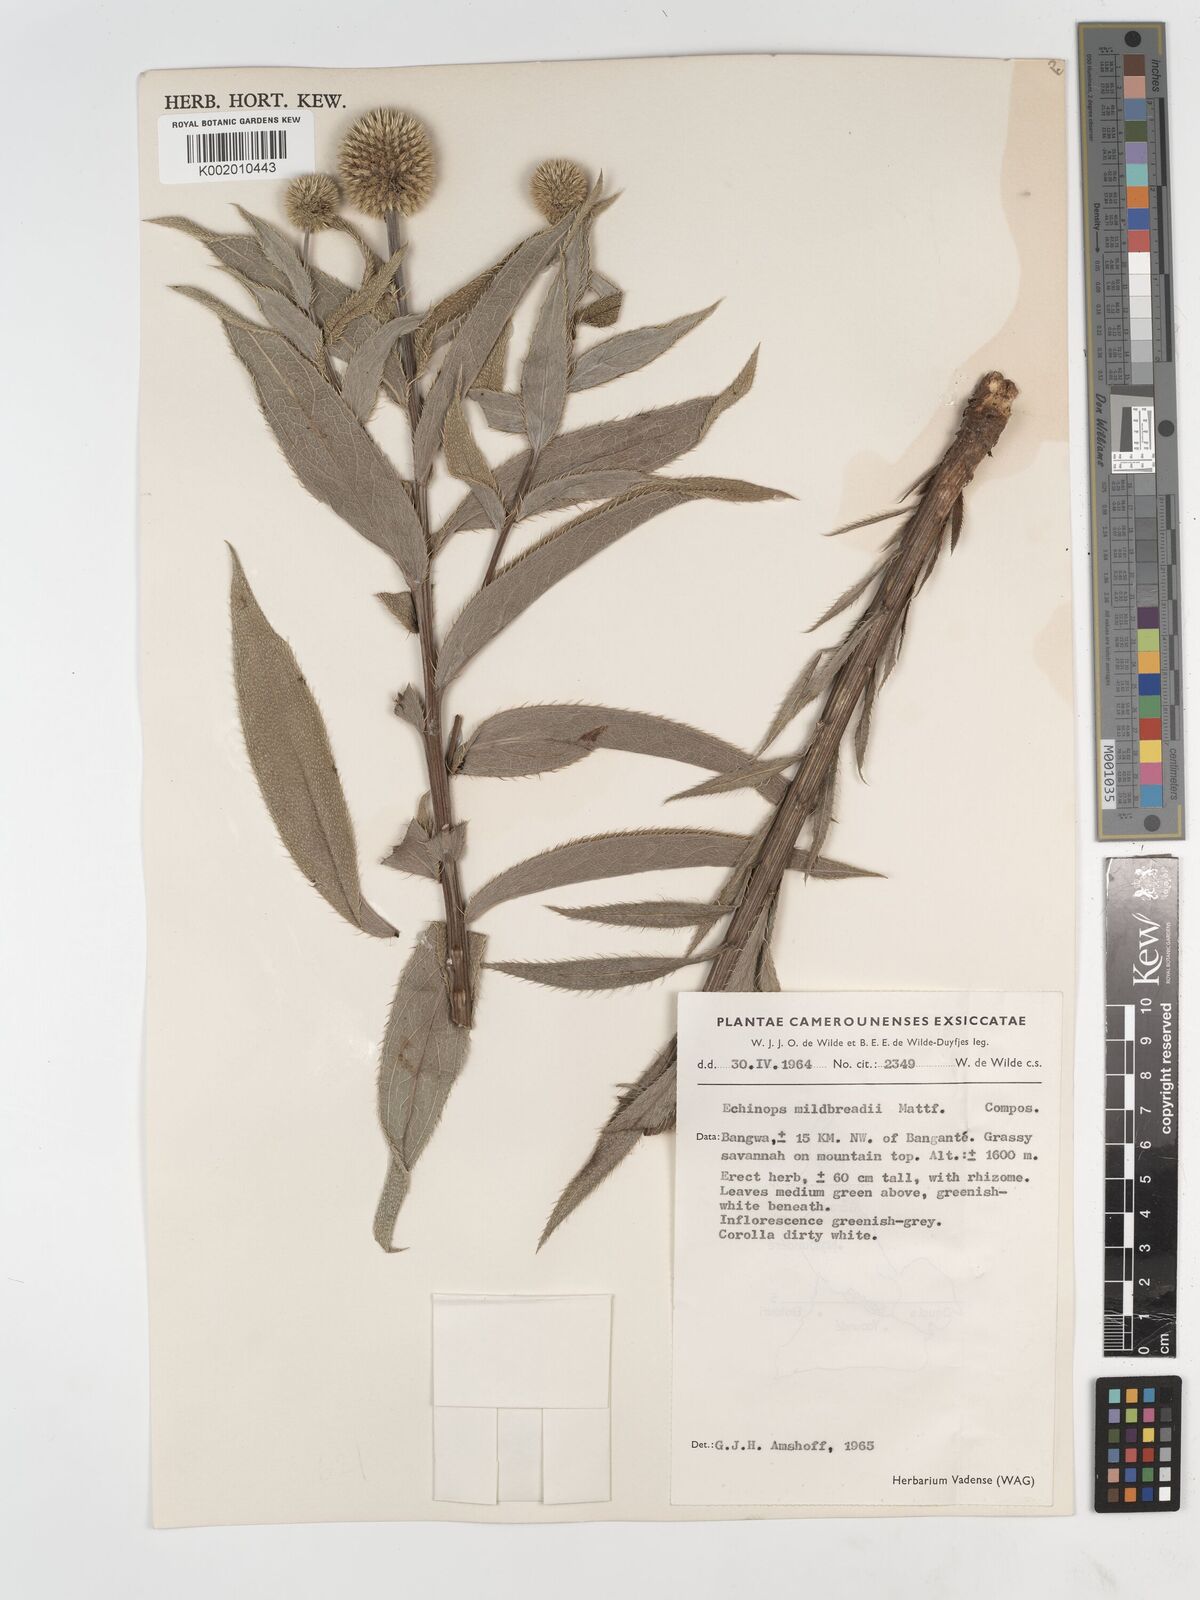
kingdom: Plantae
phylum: Tracheophyta
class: Magnoliopsida
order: Asterales
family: Asteraceae
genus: Echinops
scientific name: Echinops mildbraedii
